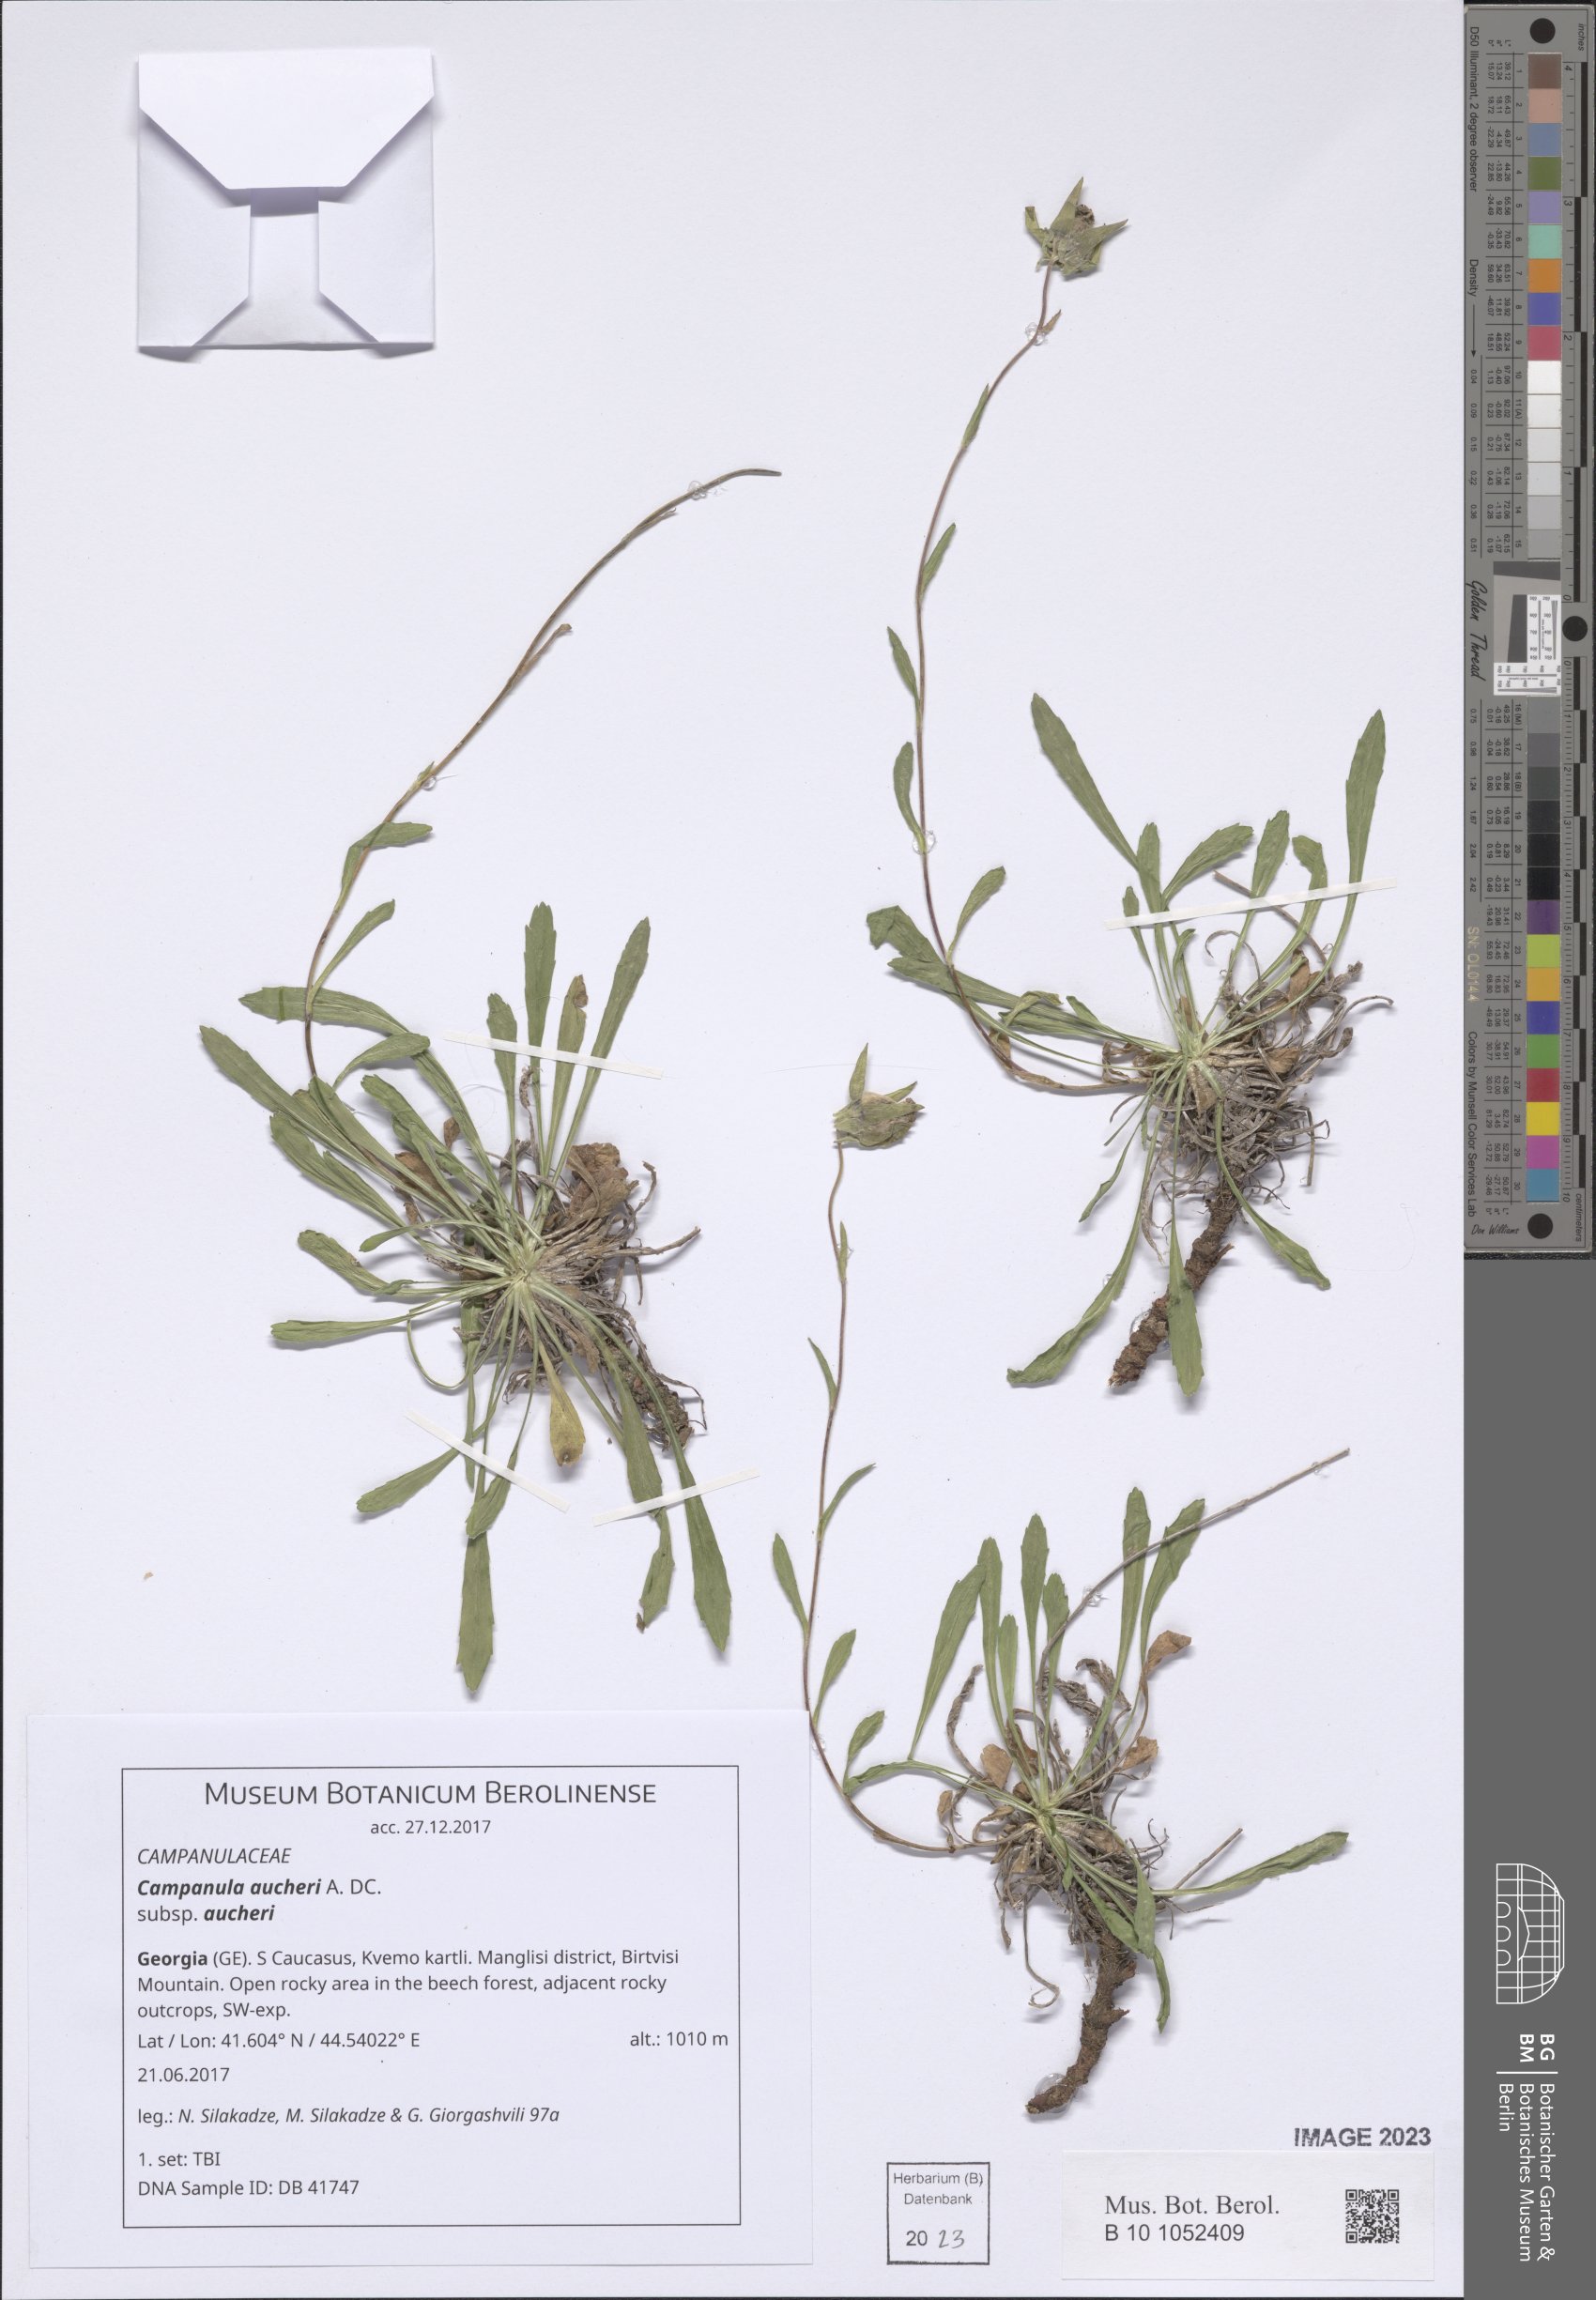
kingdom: Plantae
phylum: Tracheophyta
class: Magnoliopsida
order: Asterales
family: Campanulaceae
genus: Campanula
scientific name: Campanula saxifraga
